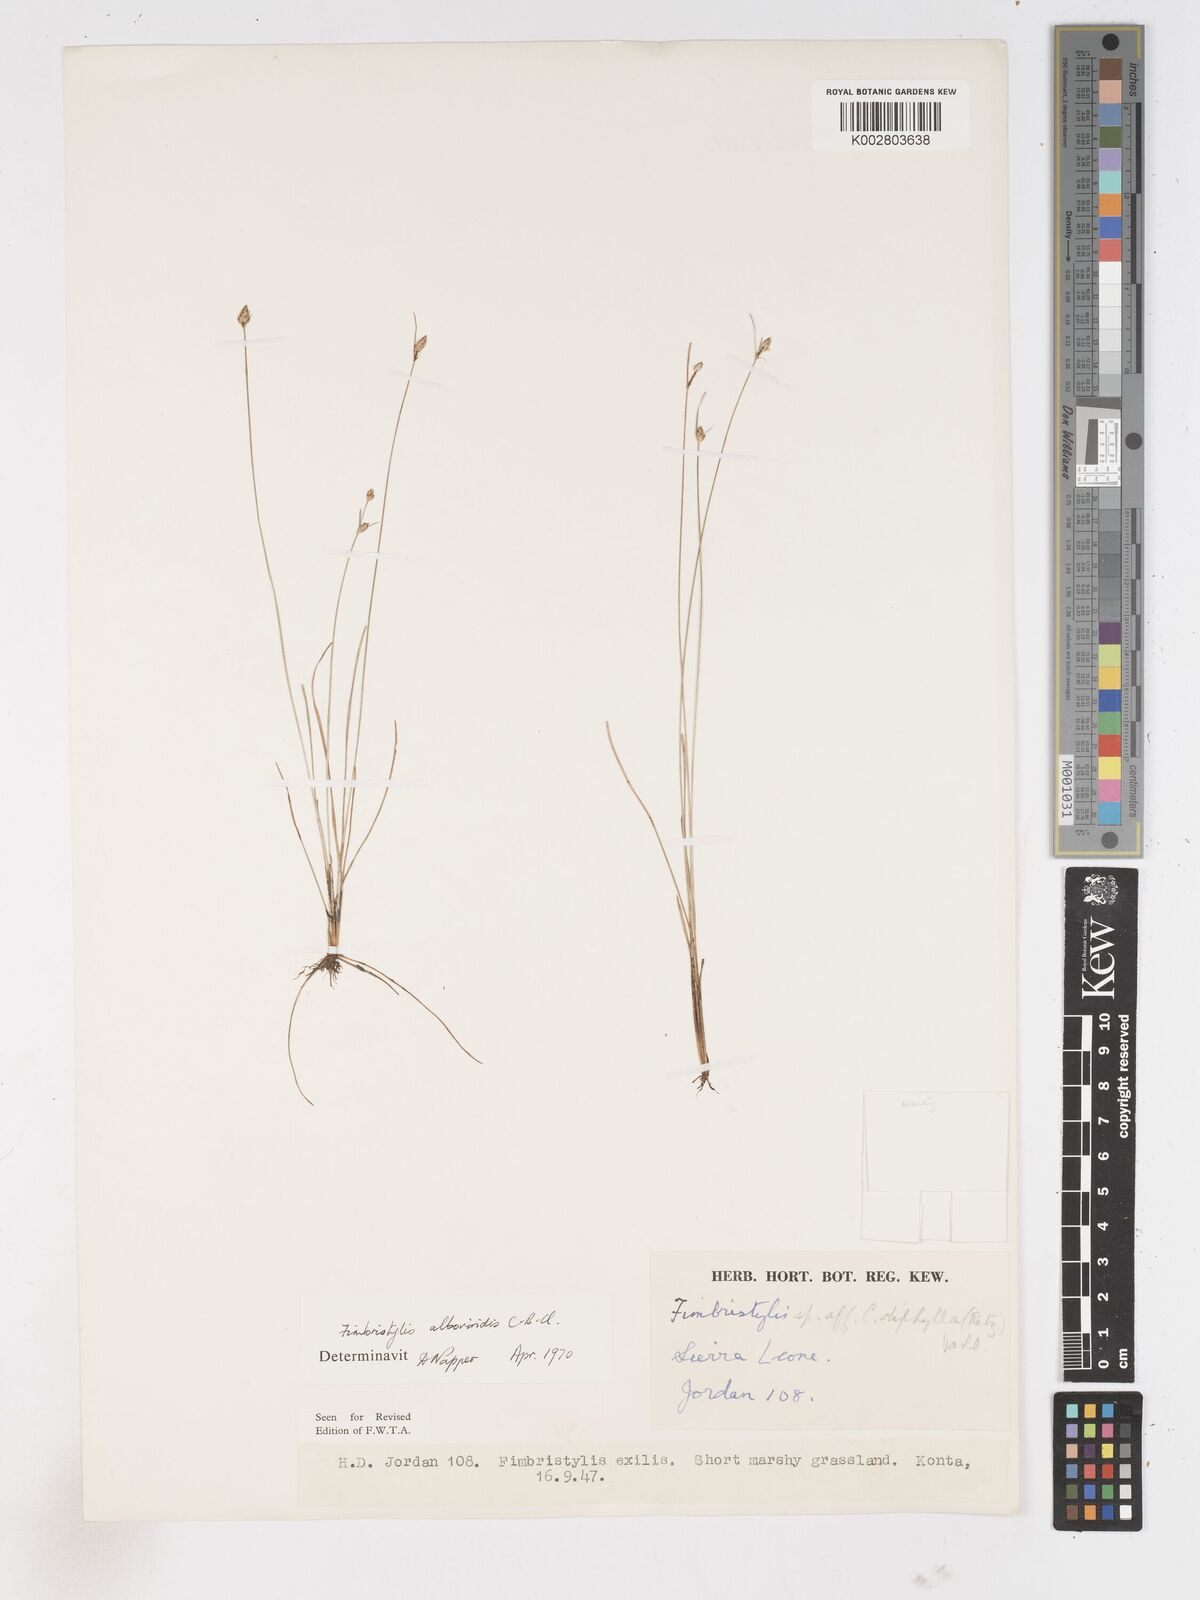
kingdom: Plantae
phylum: Tracheophyta
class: Liliopsida
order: Poales
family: Cyperaceae
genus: Fimbristylis
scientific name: Fimbristylis alboviridis
